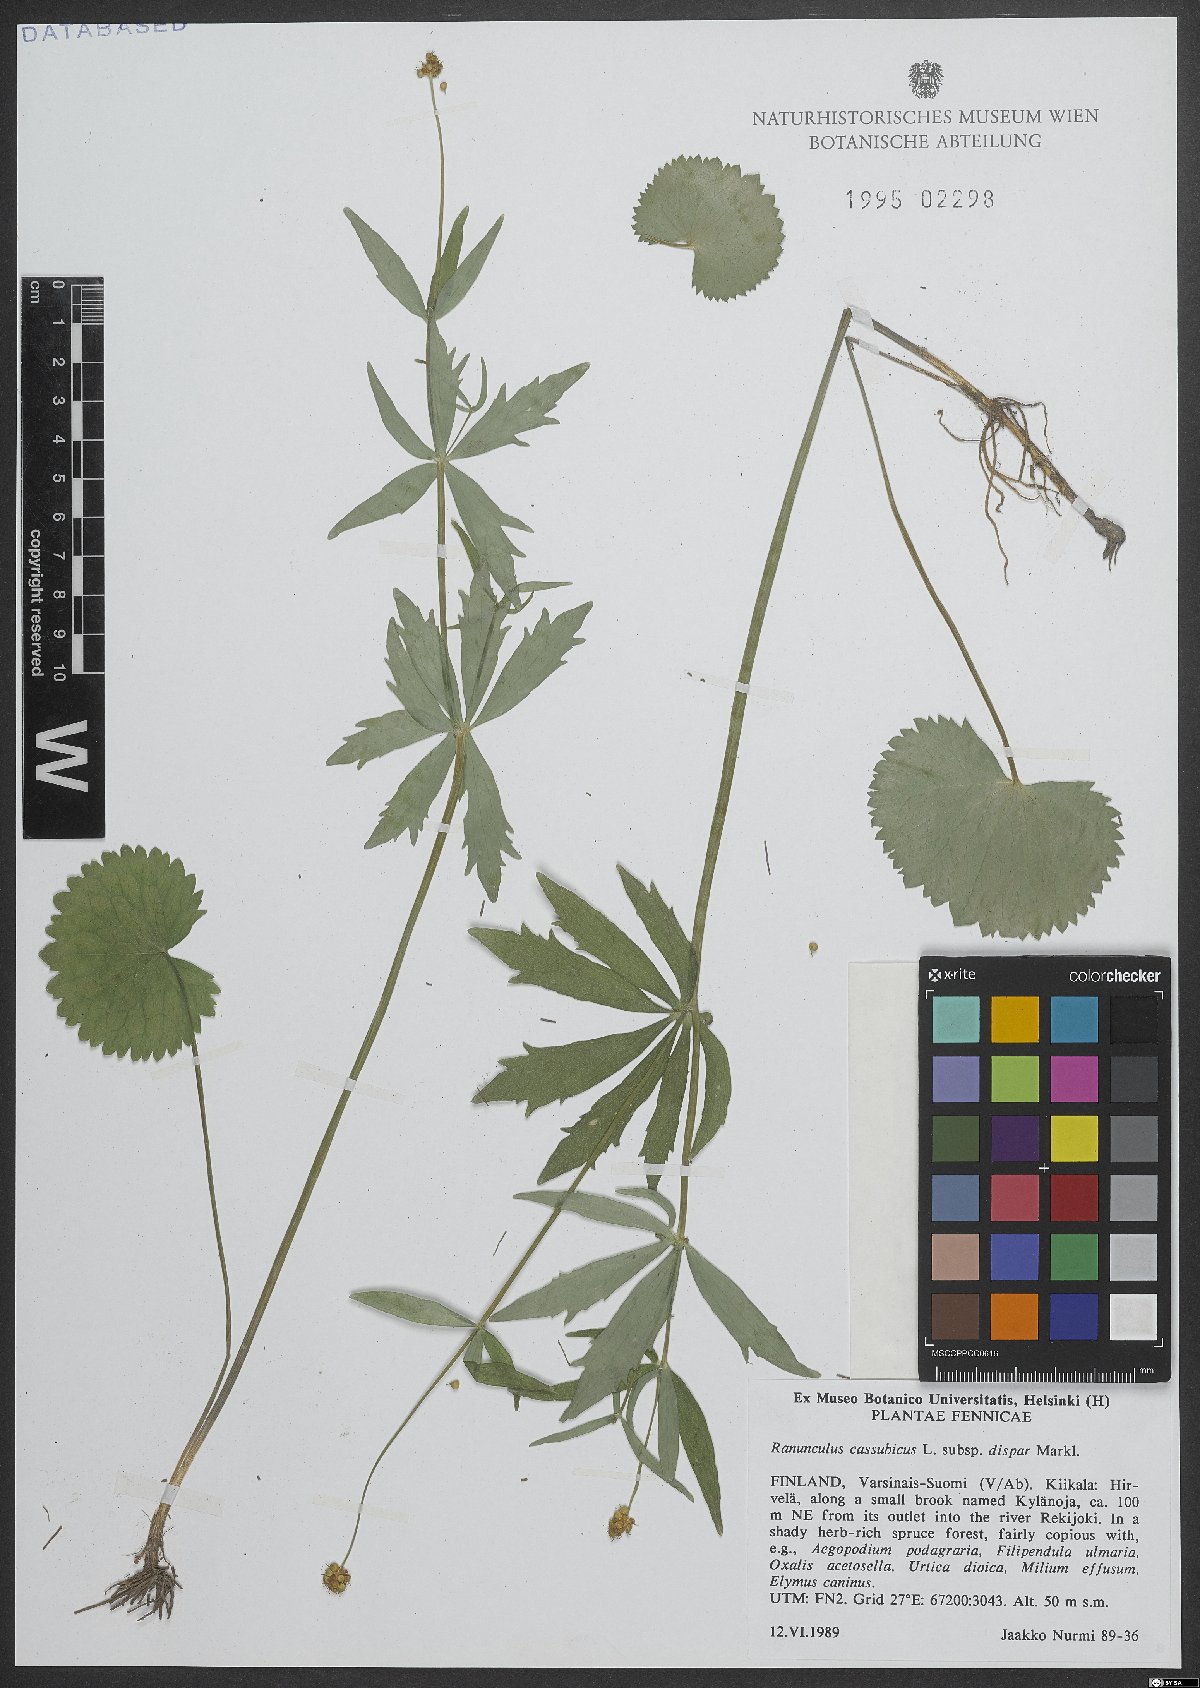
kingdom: Plantae
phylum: Tracheophyta
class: Magnoliopsida
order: Ranunculales
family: Ranunculaceae
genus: Ranunculus
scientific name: Ranunculus cassubicus
